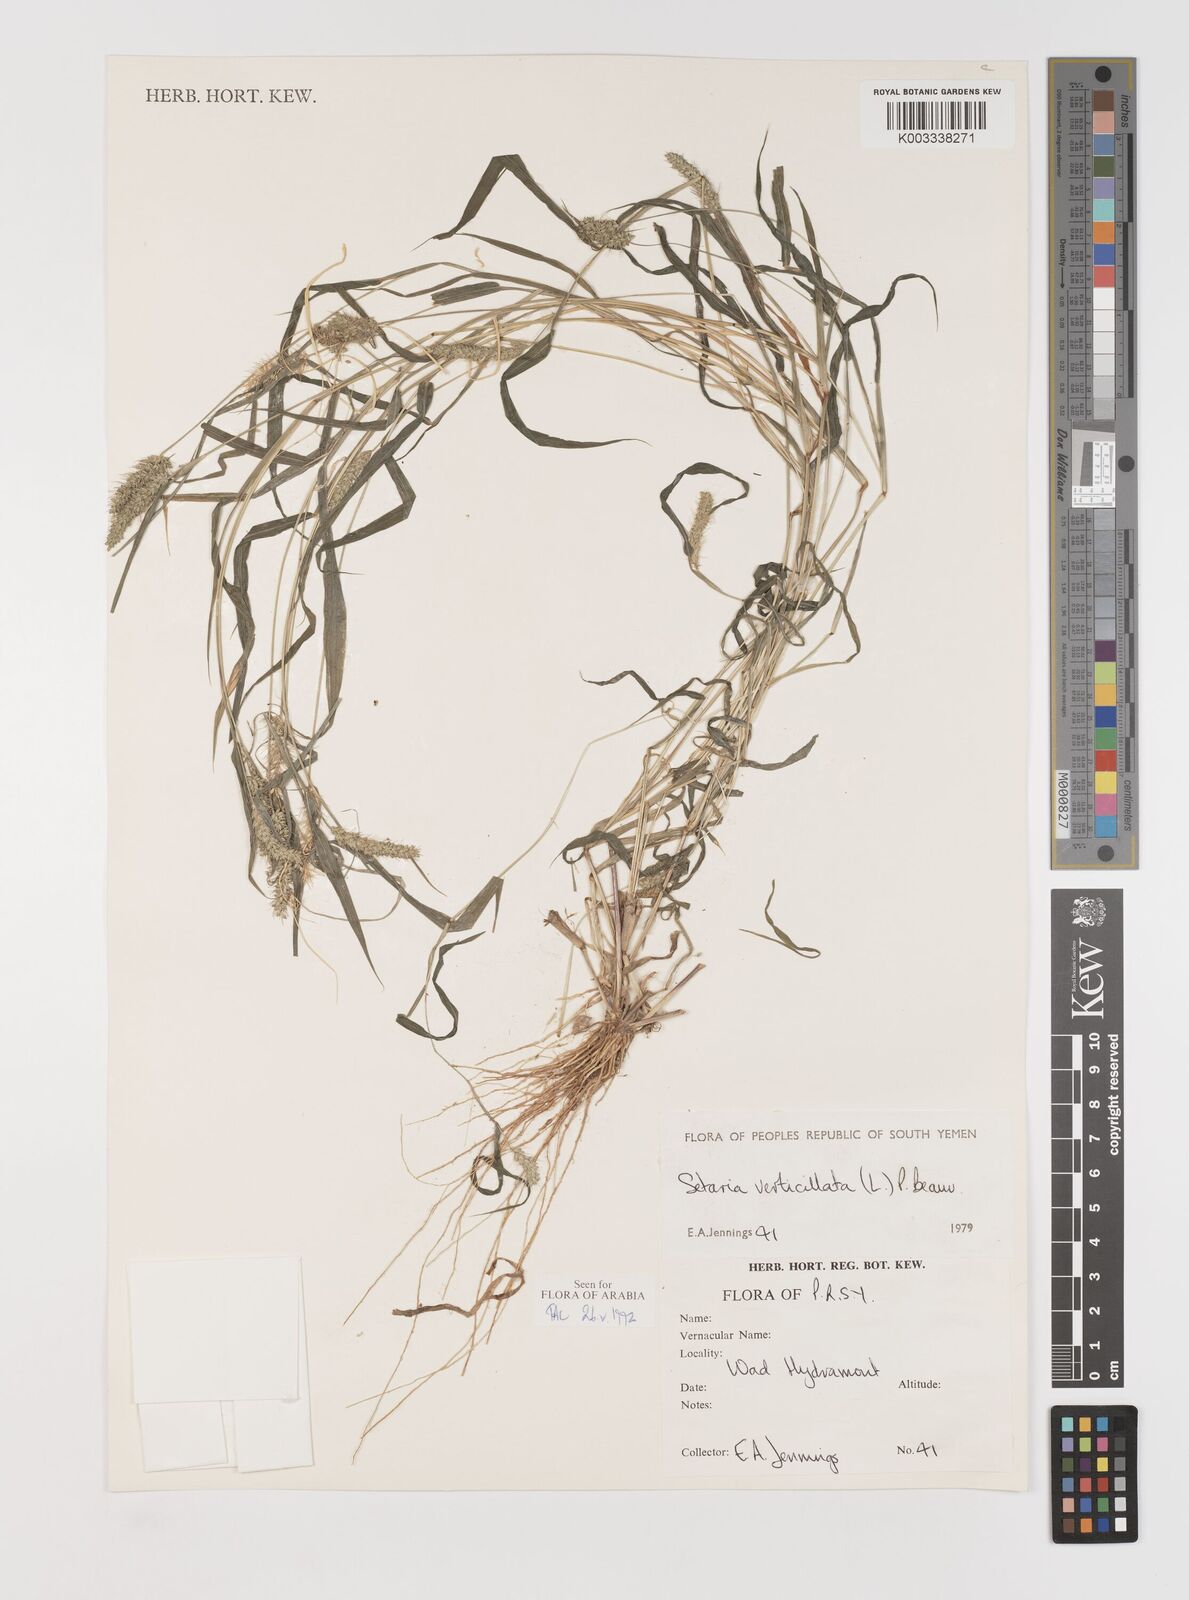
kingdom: Plantae
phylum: Tracheophyta
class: Liliopsida
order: Poales
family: Poaceae
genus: Setaria
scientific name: Setaria verticillata
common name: Hooked bristlegrass
